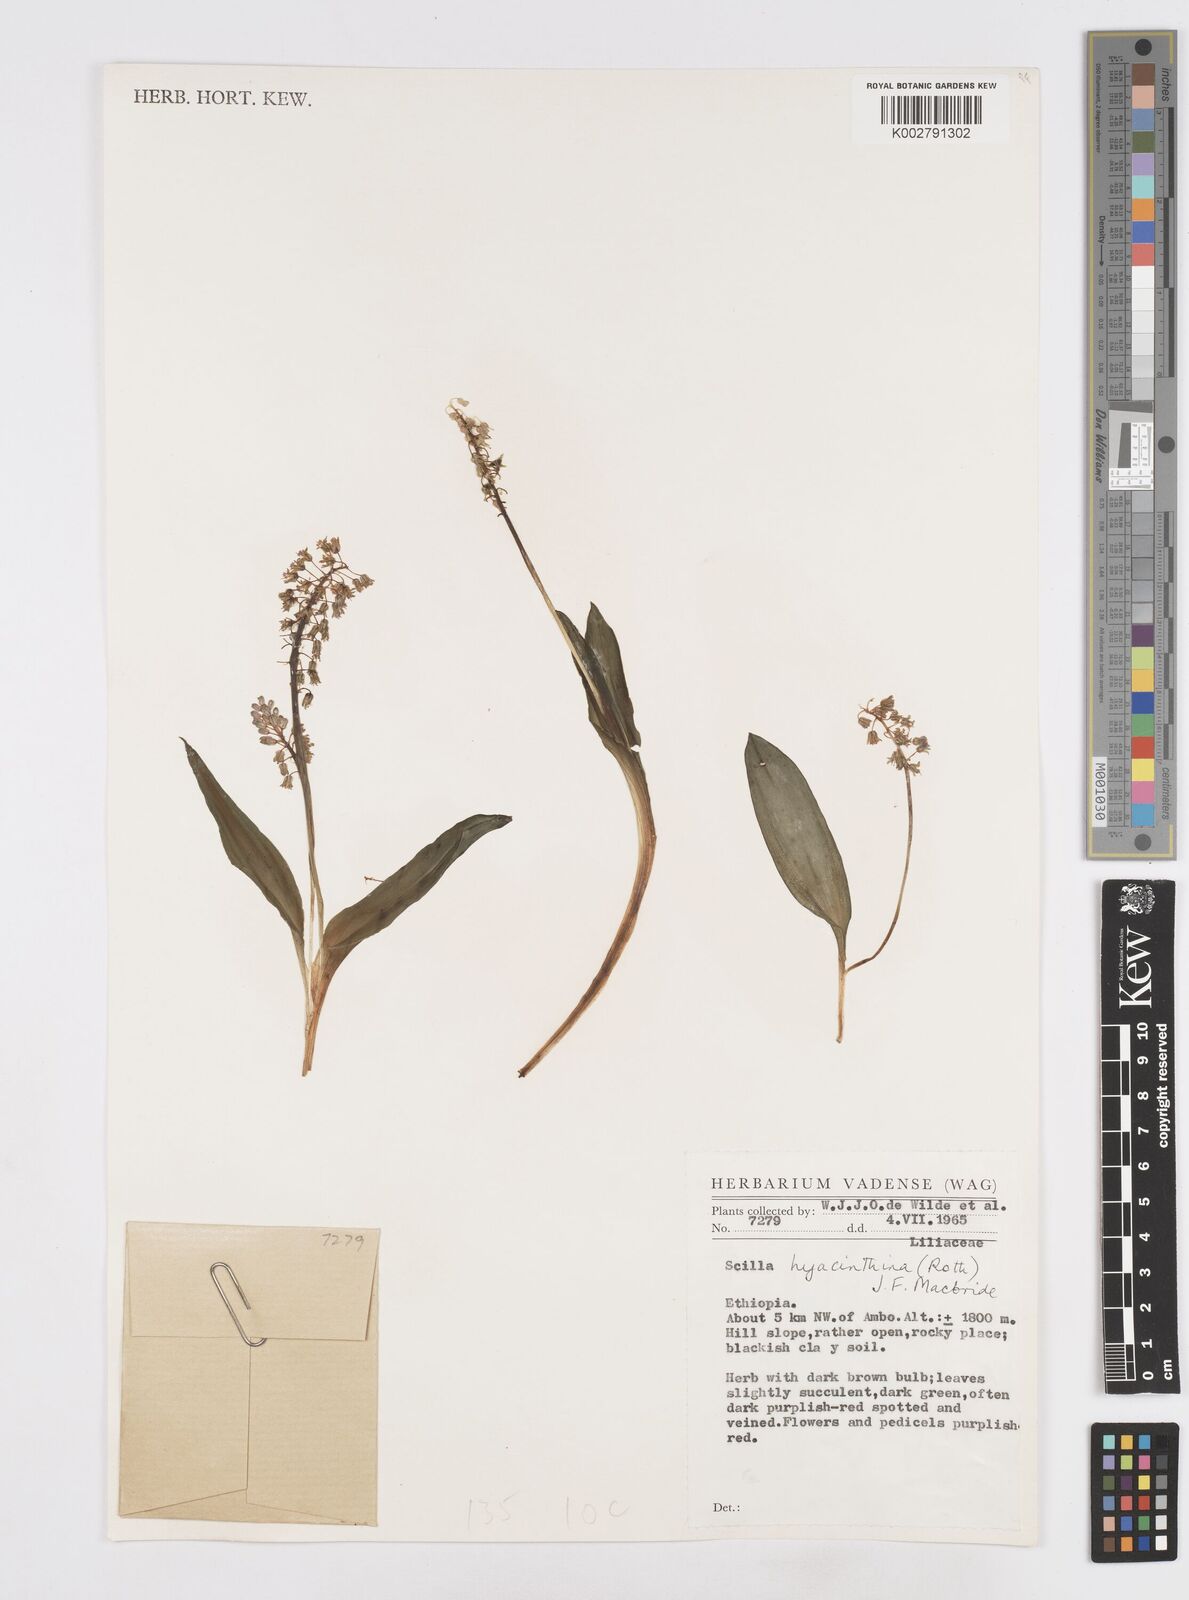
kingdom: Plantae
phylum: Tracheophyta
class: Liliopsida
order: Asparagales
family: Asparagaceae
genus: Scilla
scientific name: Scilla
